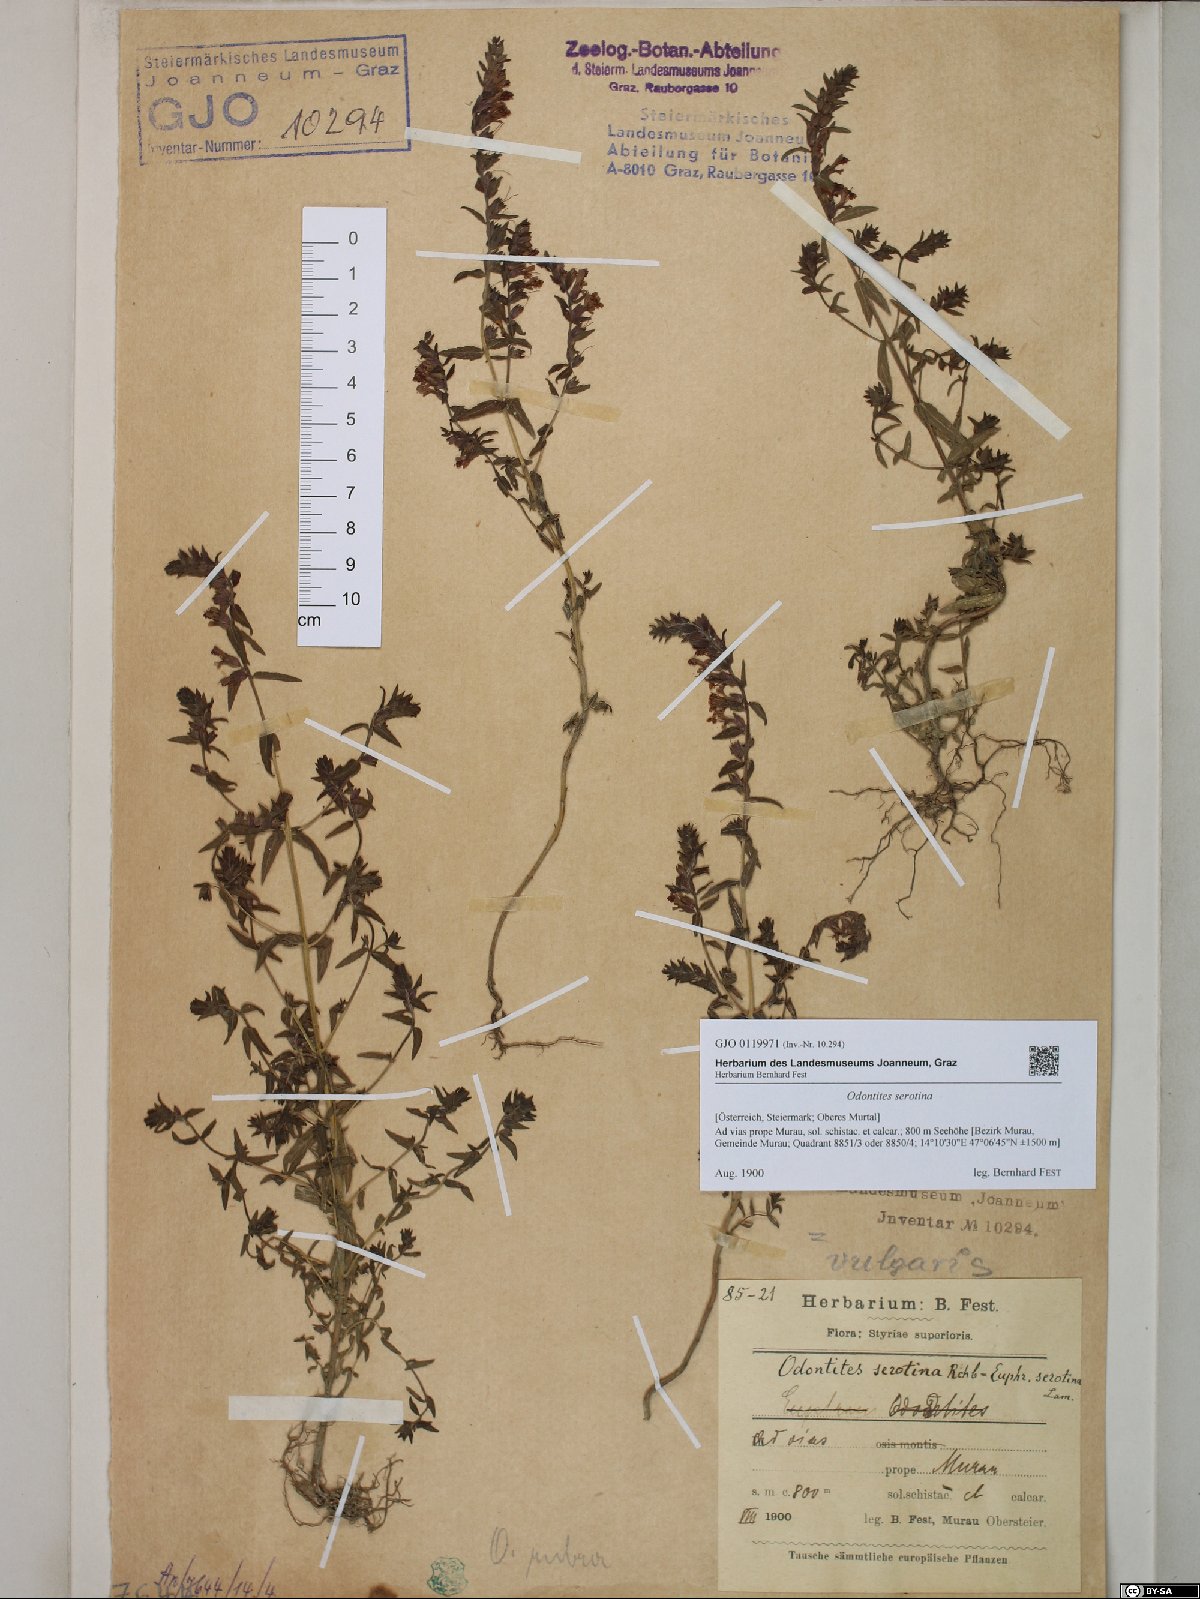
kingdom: Plantae
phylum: Tracheophyta
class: Magnoliopsida
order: Lamiales
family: Orobanchaceae
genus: Odontites
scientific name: Odontites vulgaris
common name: Broomrape
